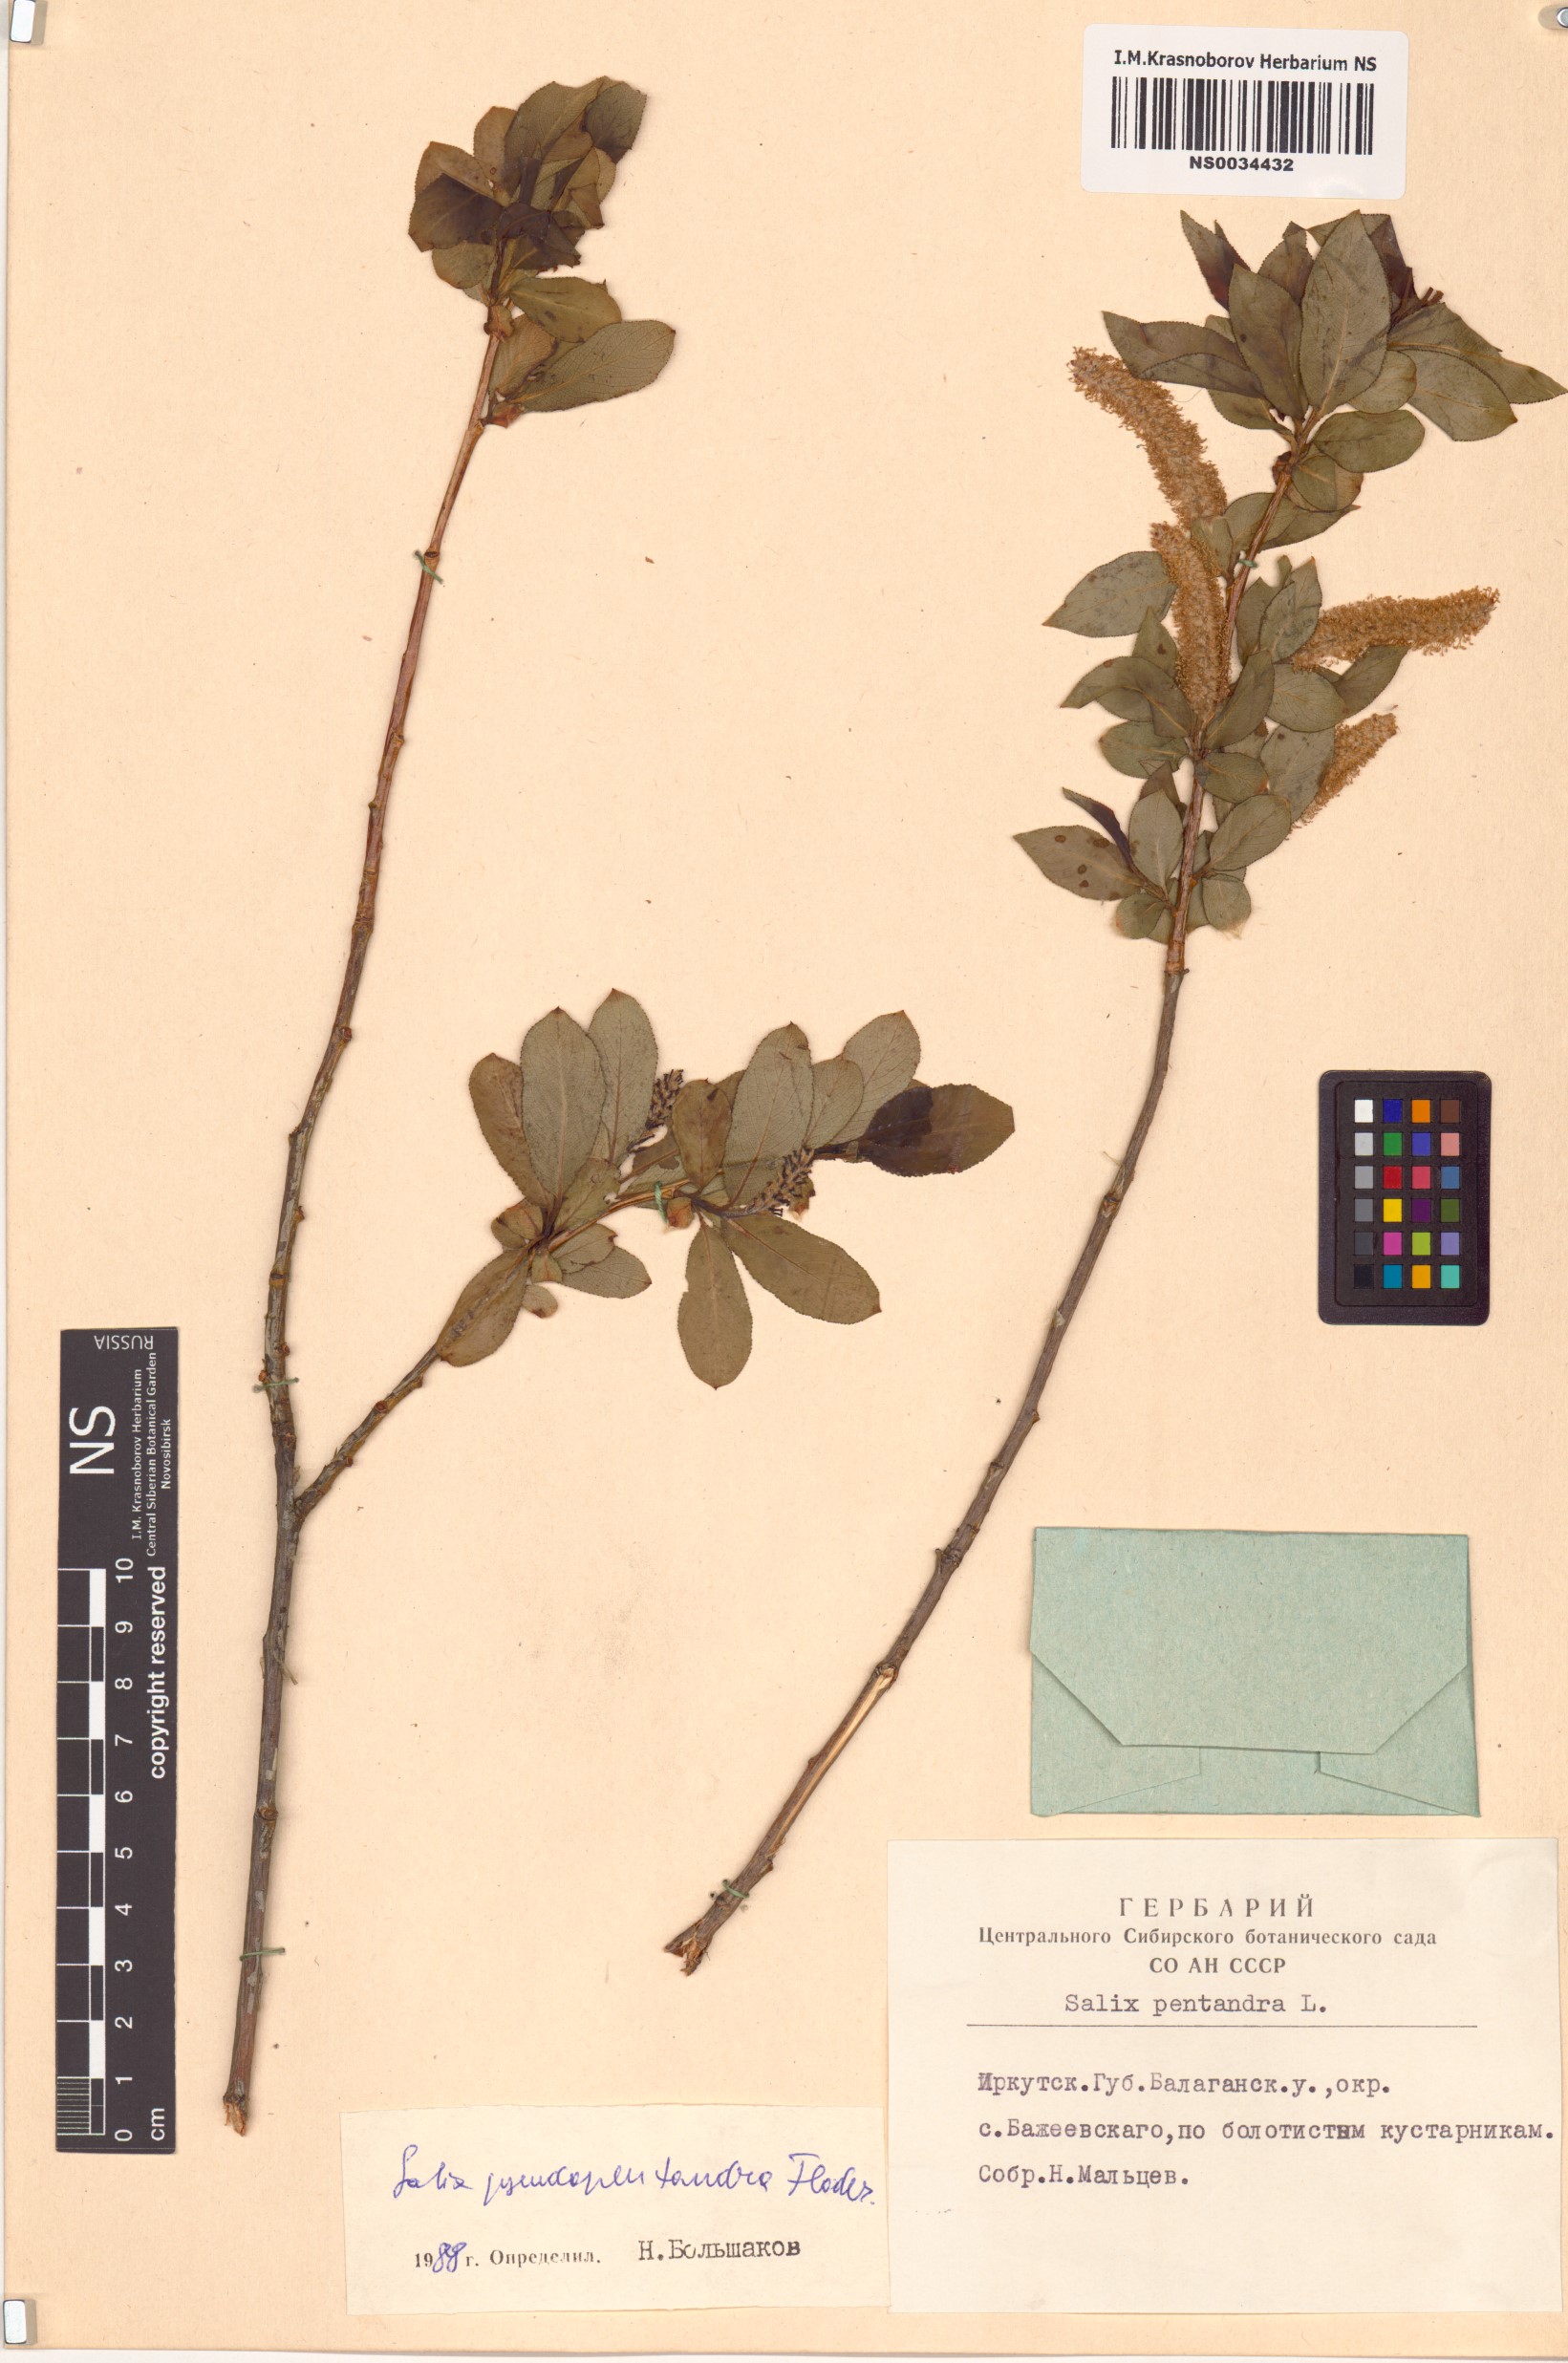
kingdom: Plantae
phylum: Tracheophyta
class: Magnoliopsida
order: Malpighiales
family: Salicaceae
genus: Salix
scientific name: Salix pseudopentandra
